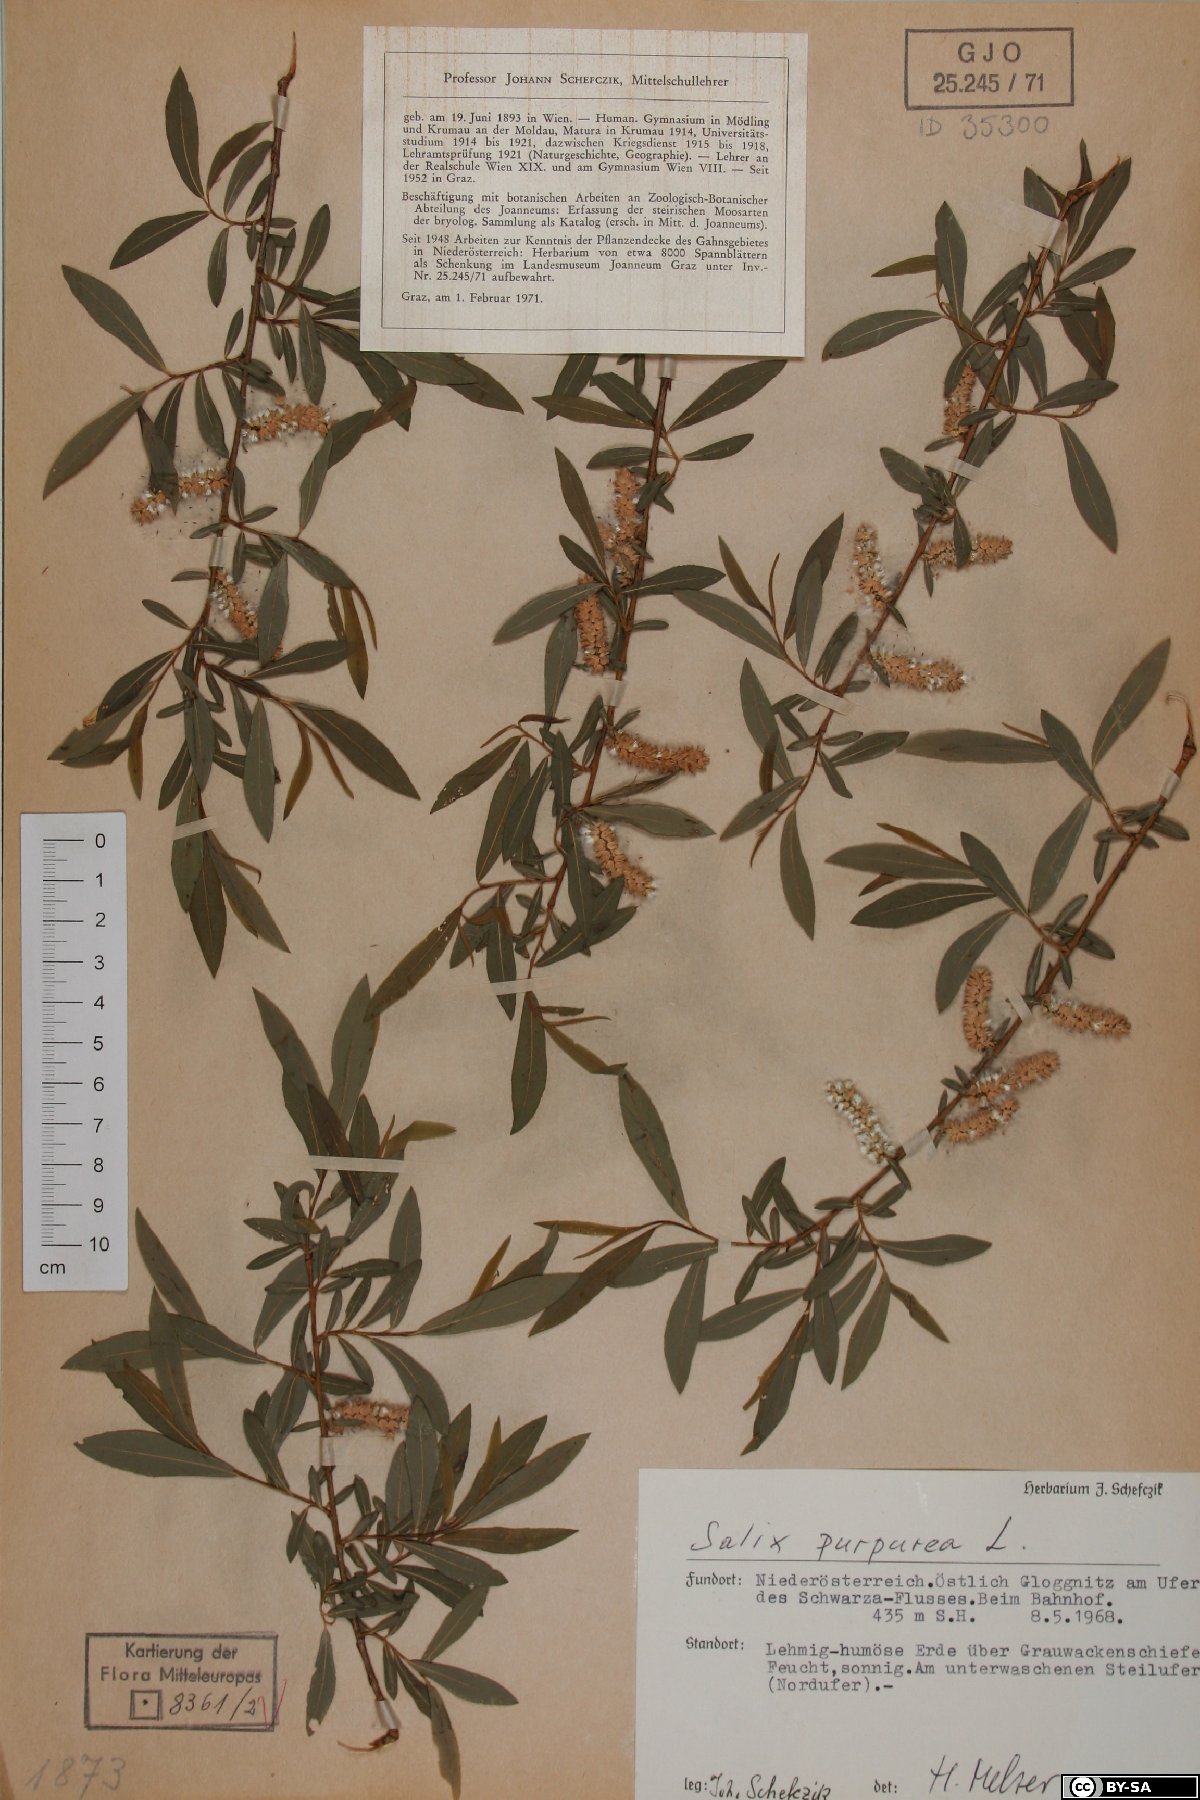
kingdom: Plantae
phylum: Tracheophyta
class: Magnoliopsida
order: Malpighiales
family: Salicaceae
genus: Salix
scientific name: Salix purpurea
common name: Purple willow
